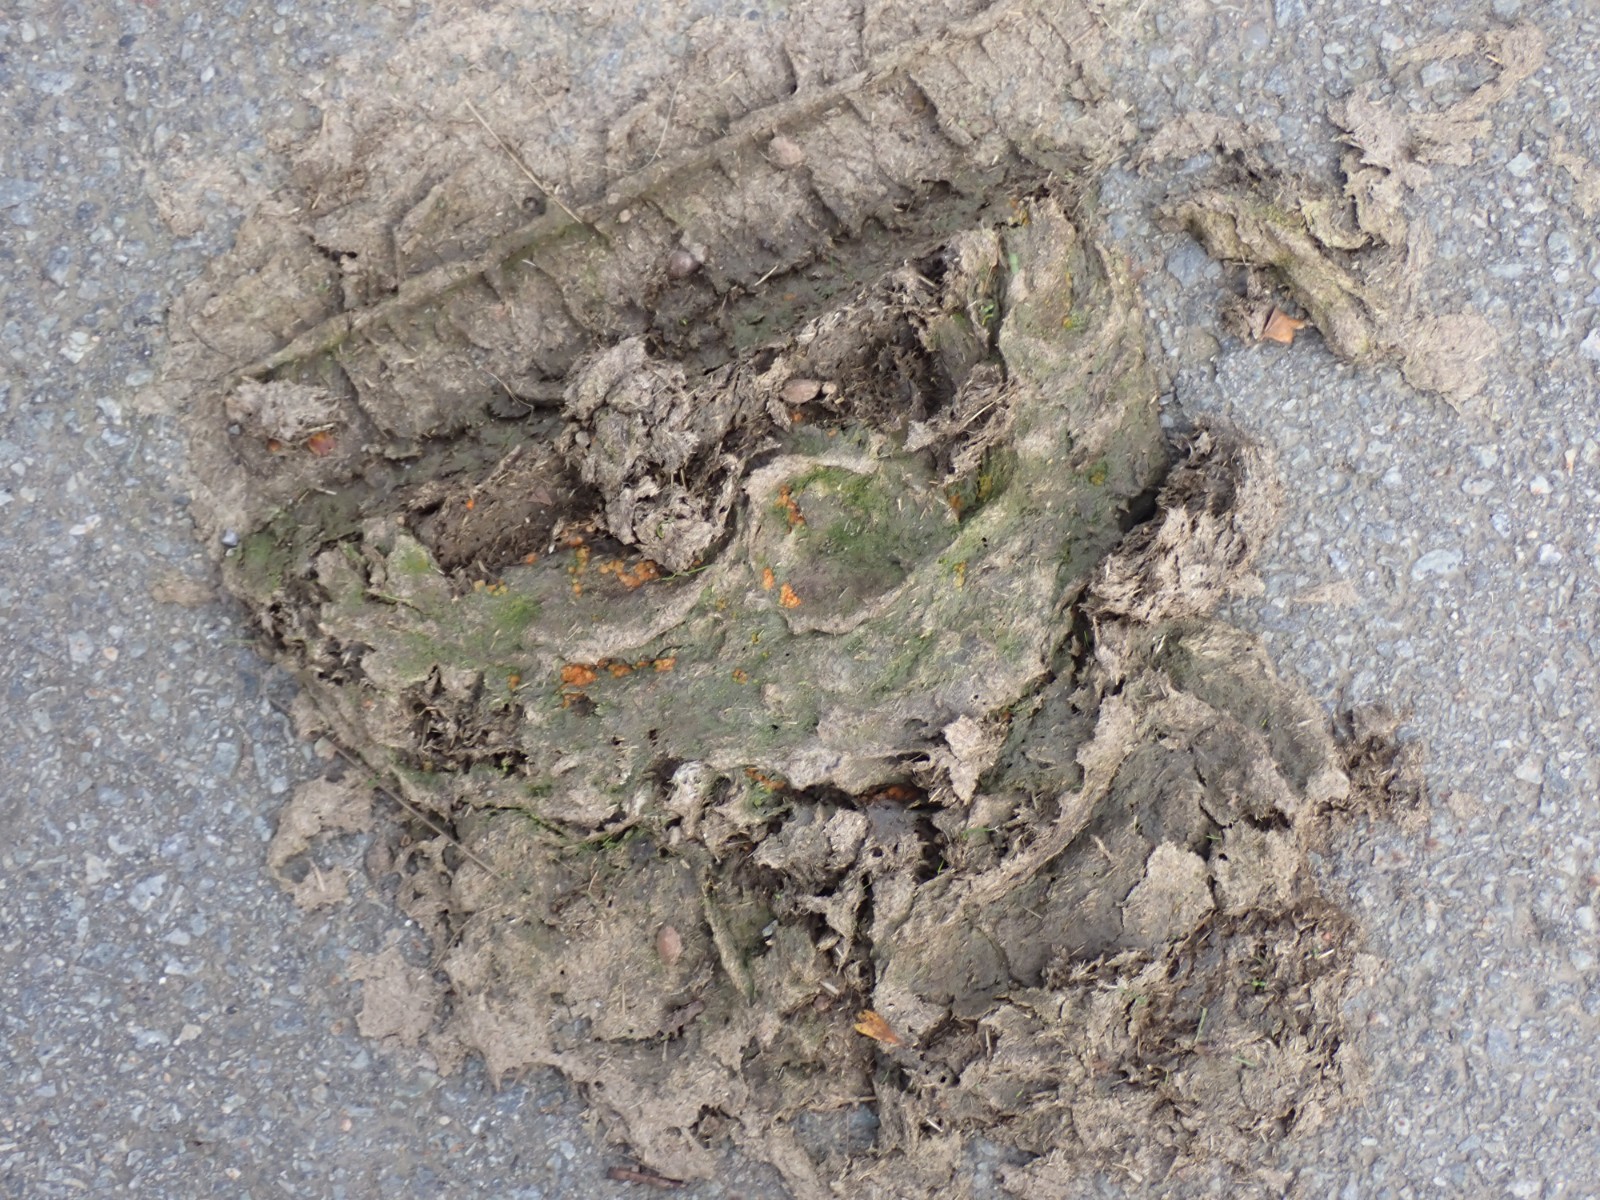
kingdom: Fungi
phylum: Ascomycota
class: Pezizomycetes
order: Pezizales
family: Pyronemataceae
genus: Cheilymenia
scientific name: Cheilymenia granulata
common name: møgbæger
